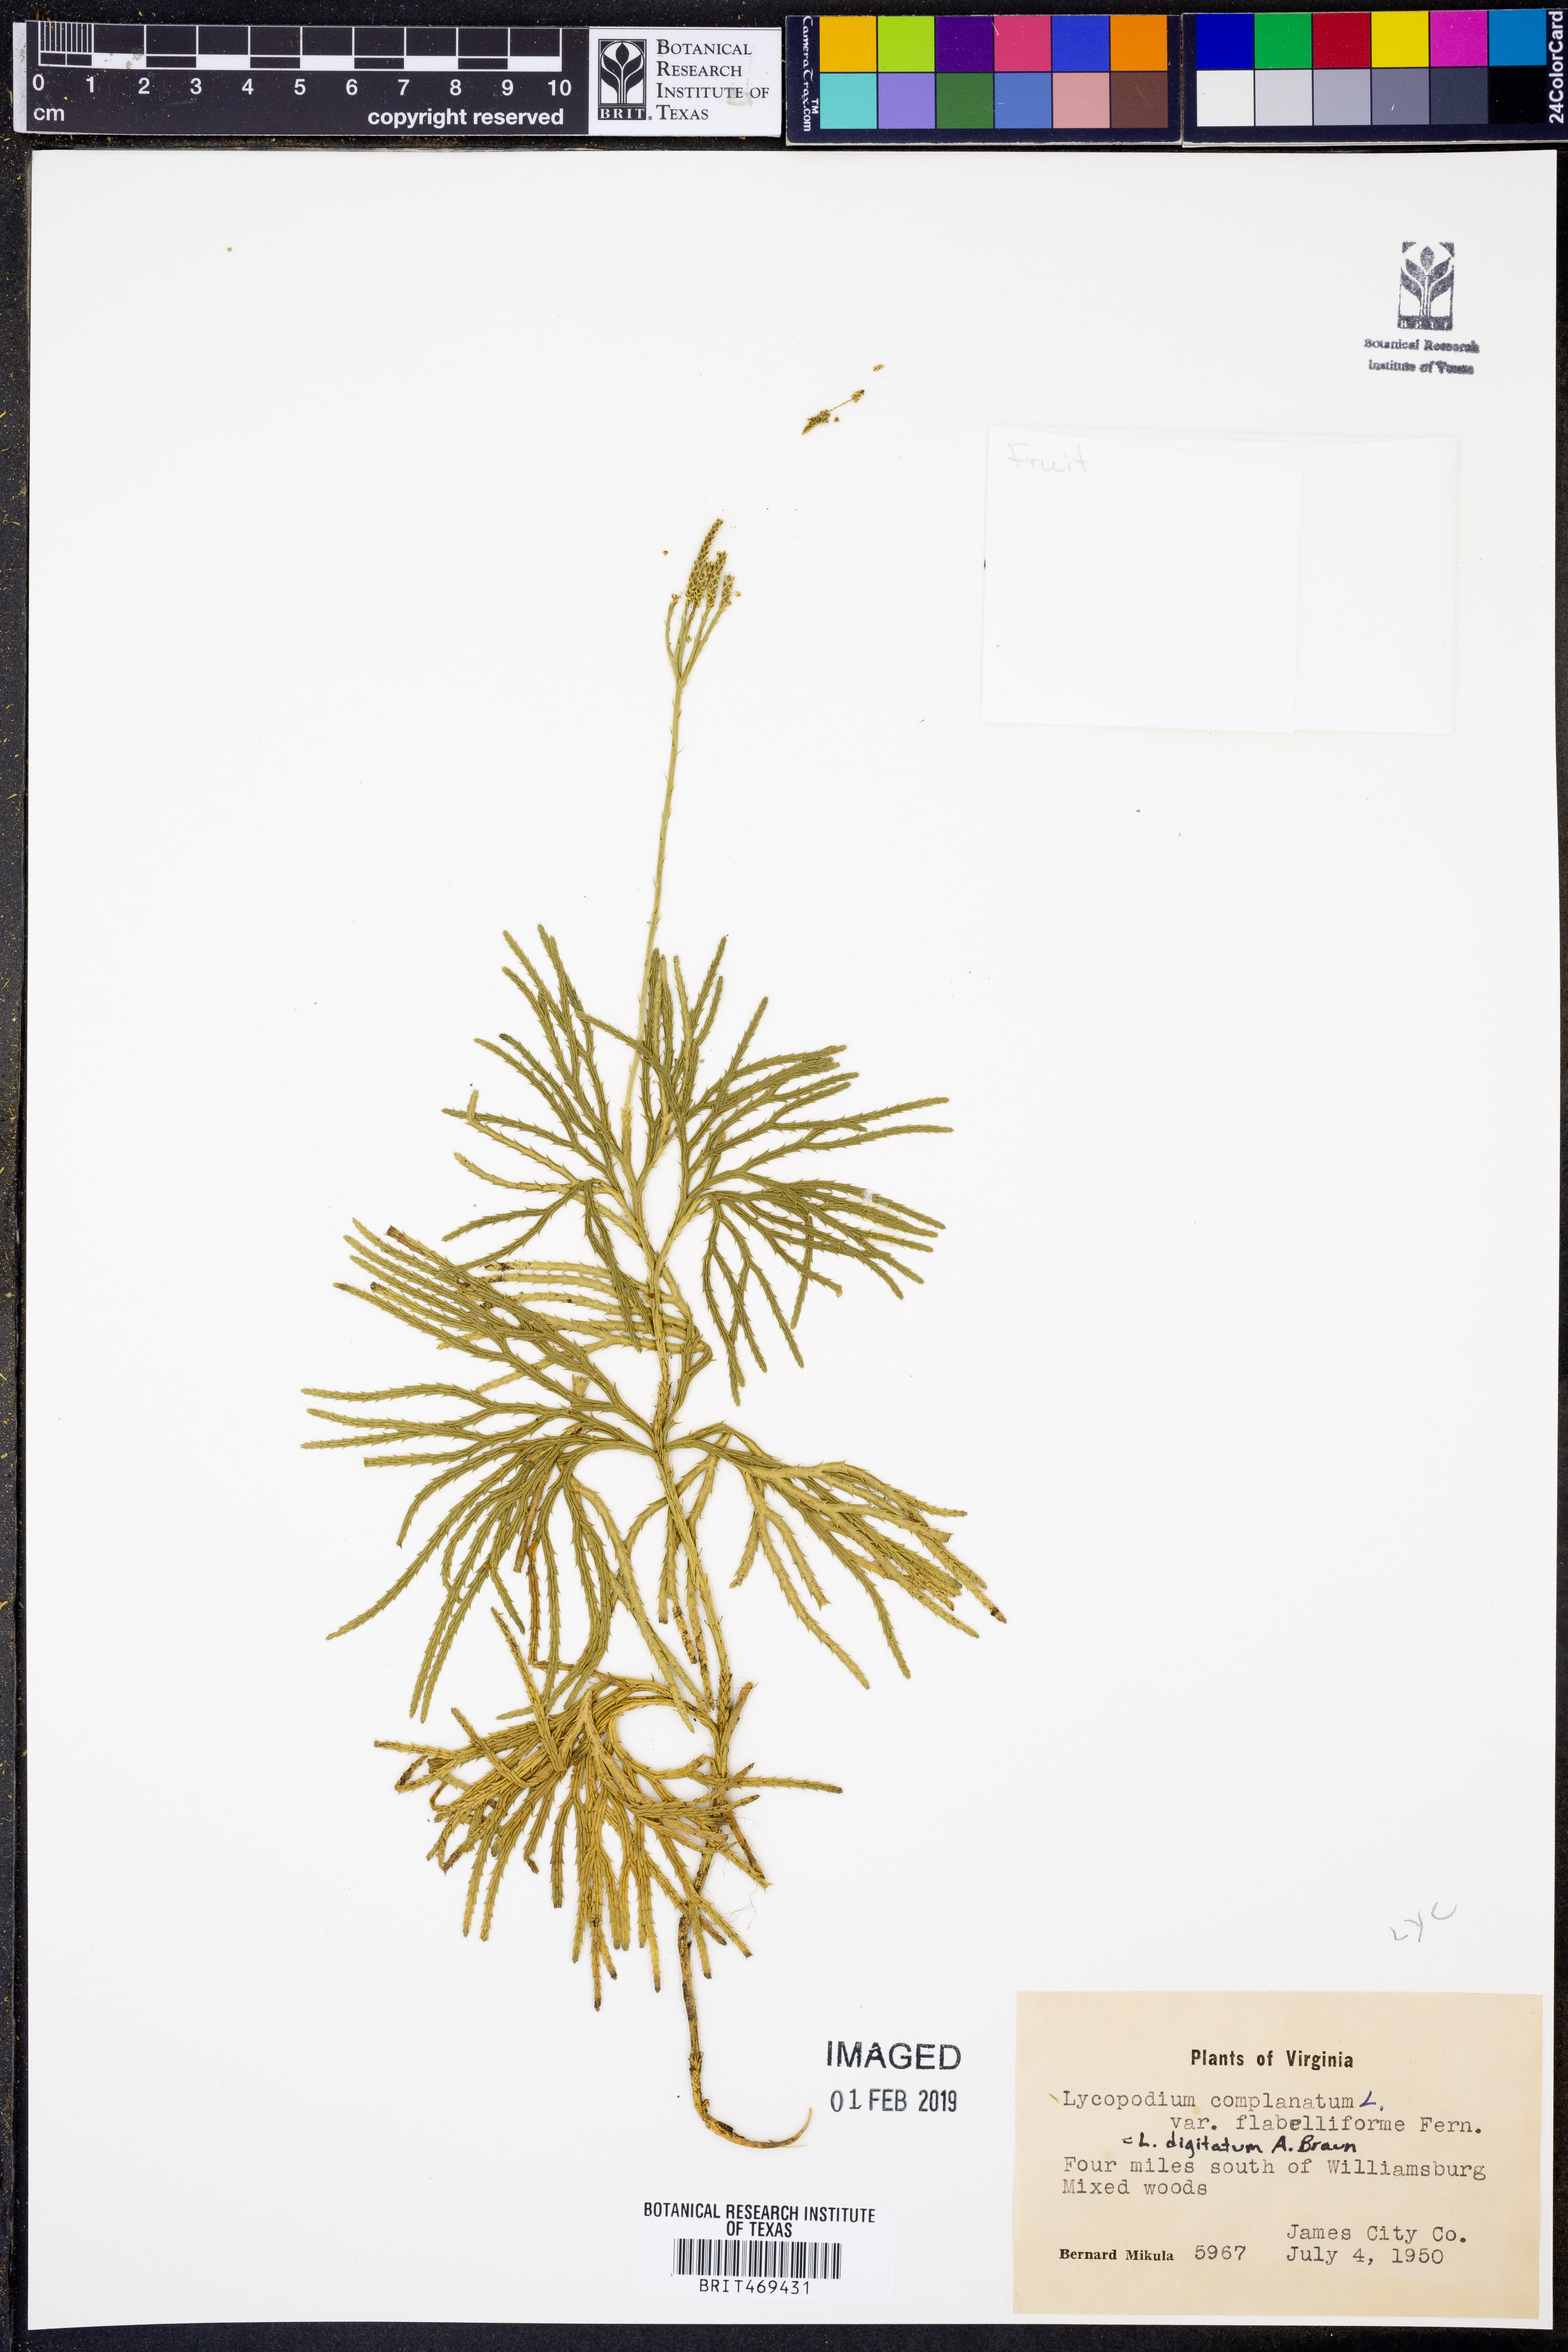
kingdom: Plantae
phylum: Tracheophyta
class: Lycopodiopsida
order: Lycopodiales
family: Lycopodiaceae
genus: Diphasiastrum
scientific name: Diphasiastrum digitatum
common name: Southern running-pine
